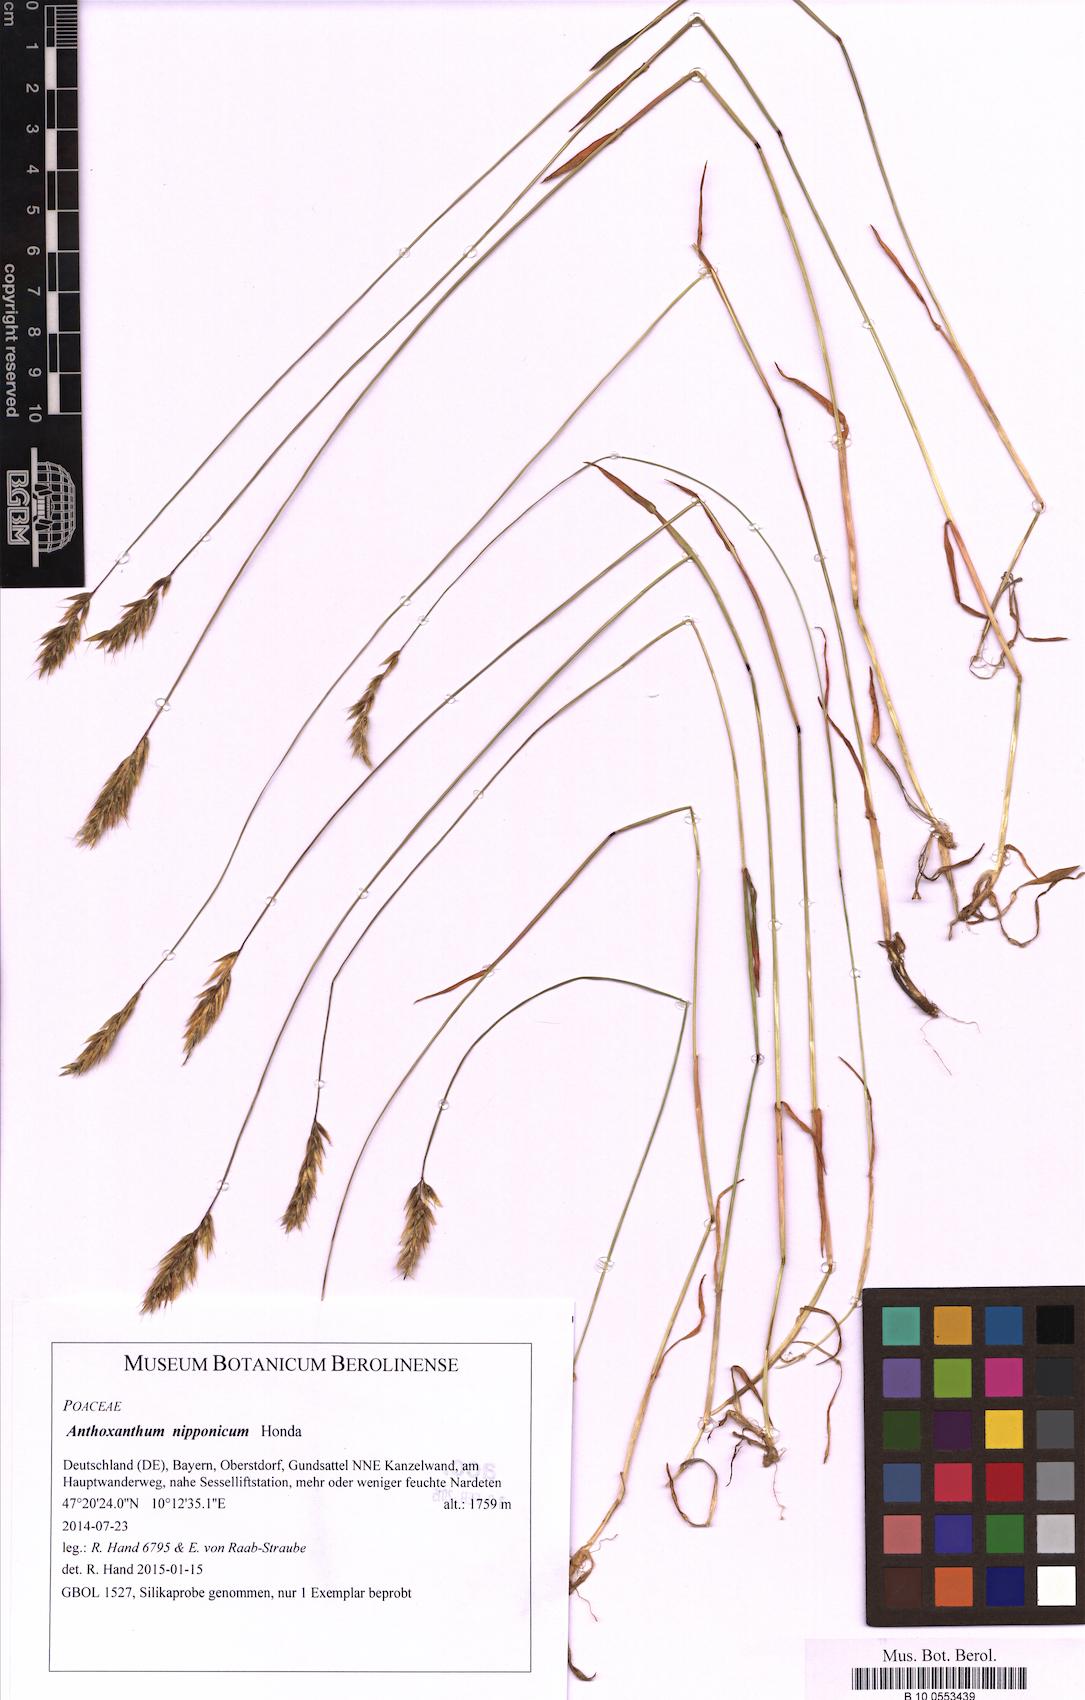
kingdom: Plantae
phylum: Tracheophyta
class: Liliopsida
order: Poales
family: Poaceae
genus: Anthoxanthum
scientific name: Anthoxanthum nipponicum
